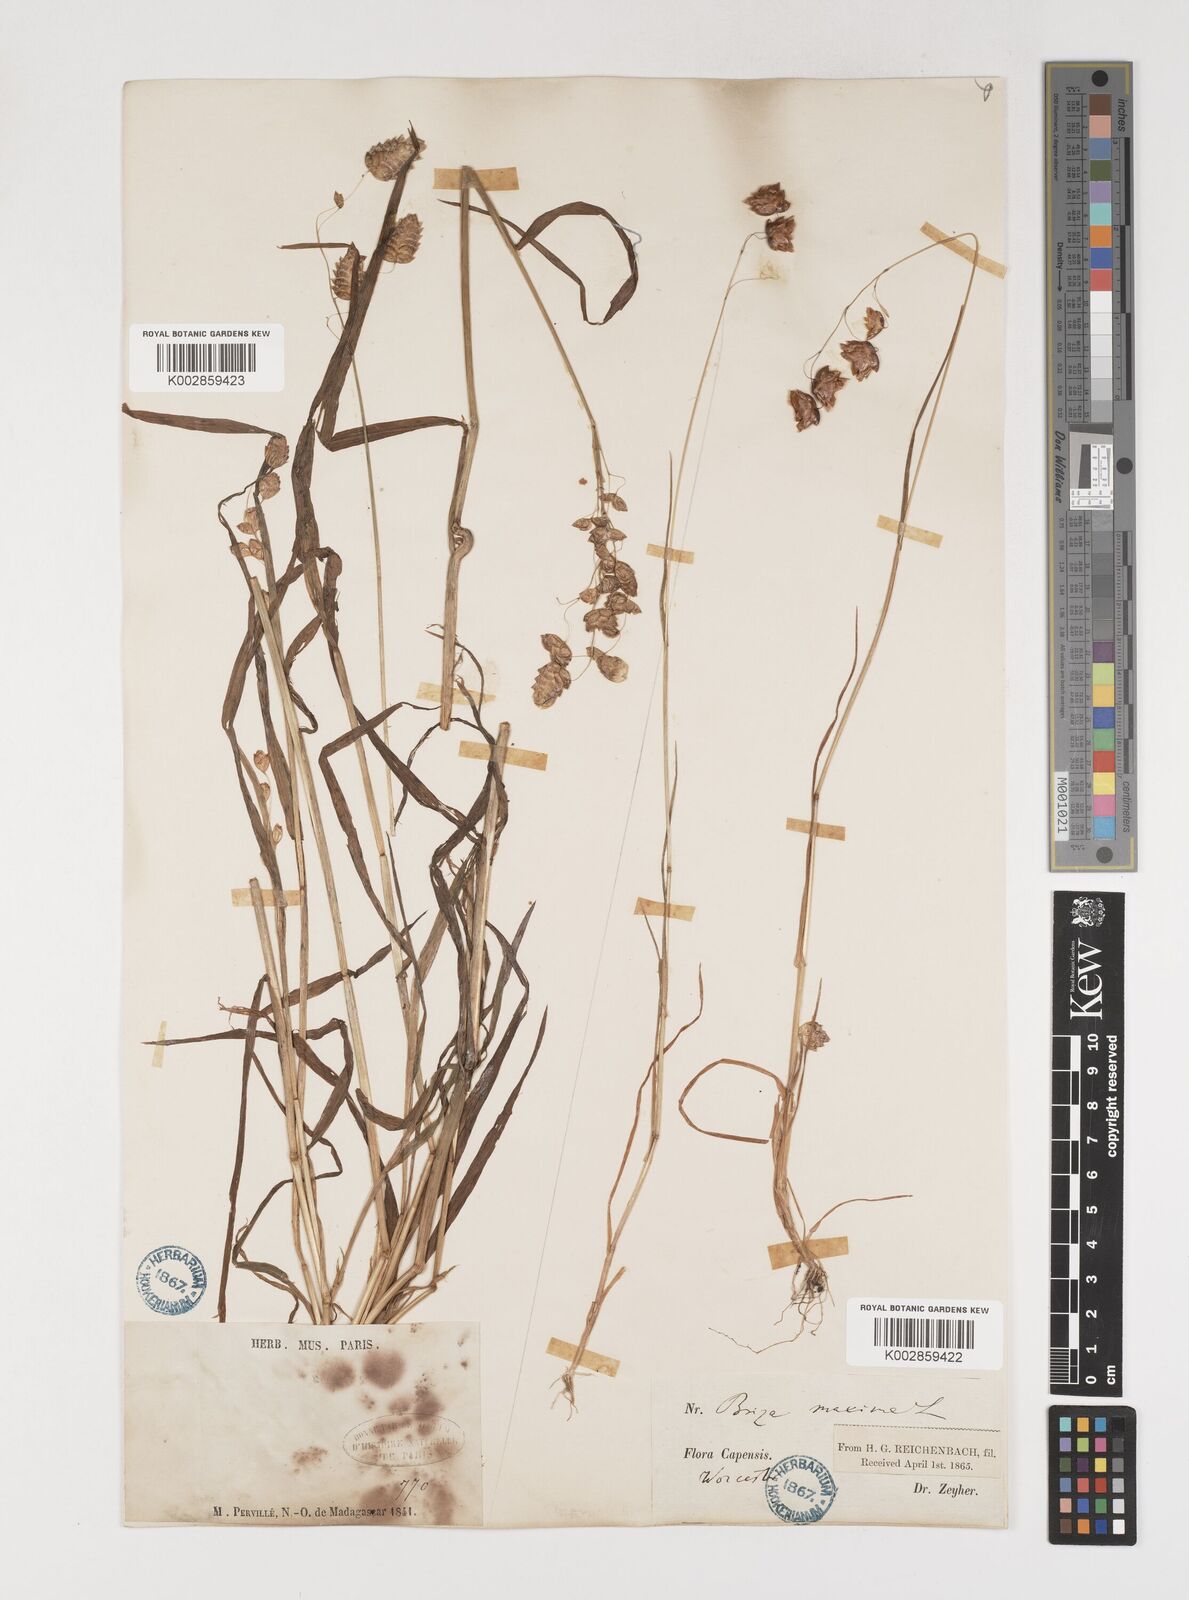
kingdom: Plantae
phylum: Tracheophyta
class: Liliopsida
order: Poales
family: Poaceae
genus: Briza
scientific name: Briza maxima
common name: Big quakinggrass
